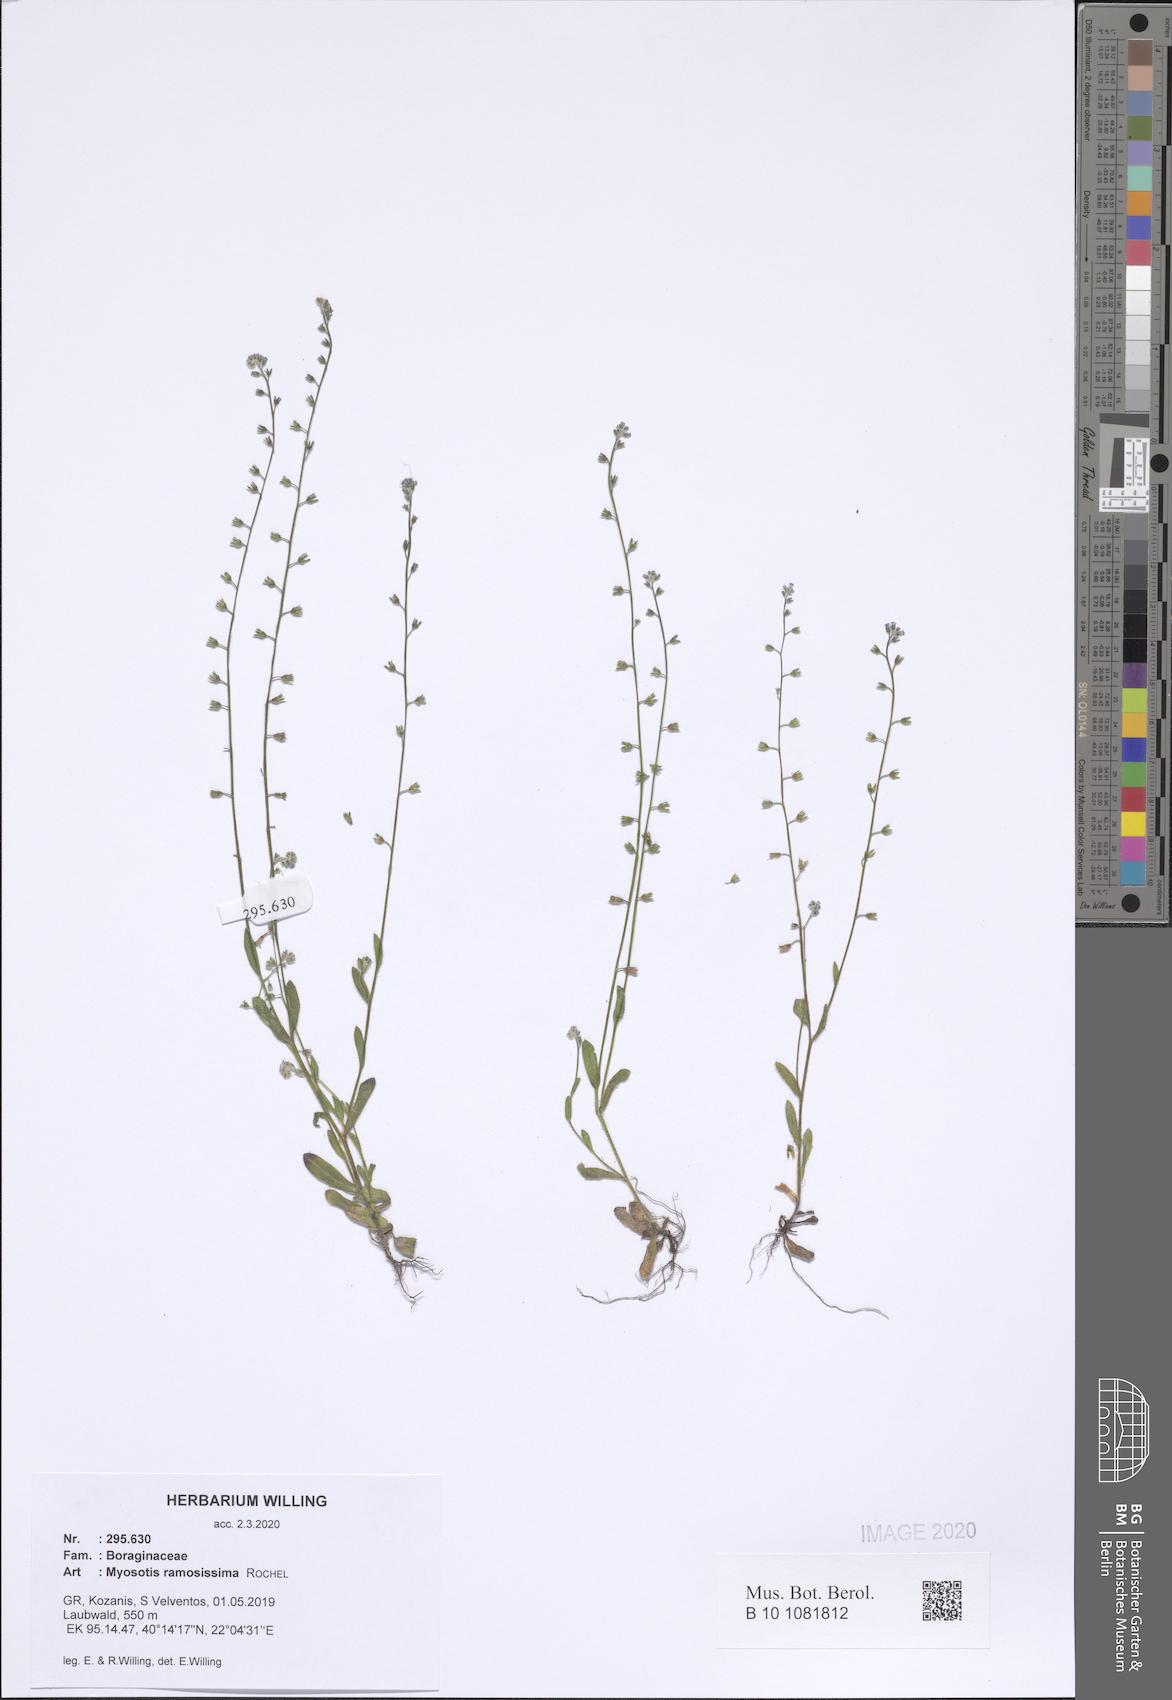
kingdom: Plantae
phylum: Tracheophyta
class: Magnoliopsida
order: Boraginales
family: Boraginaceae
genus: Myosotis
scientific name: Myosotis ramosissima
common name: Early forget-me-not
